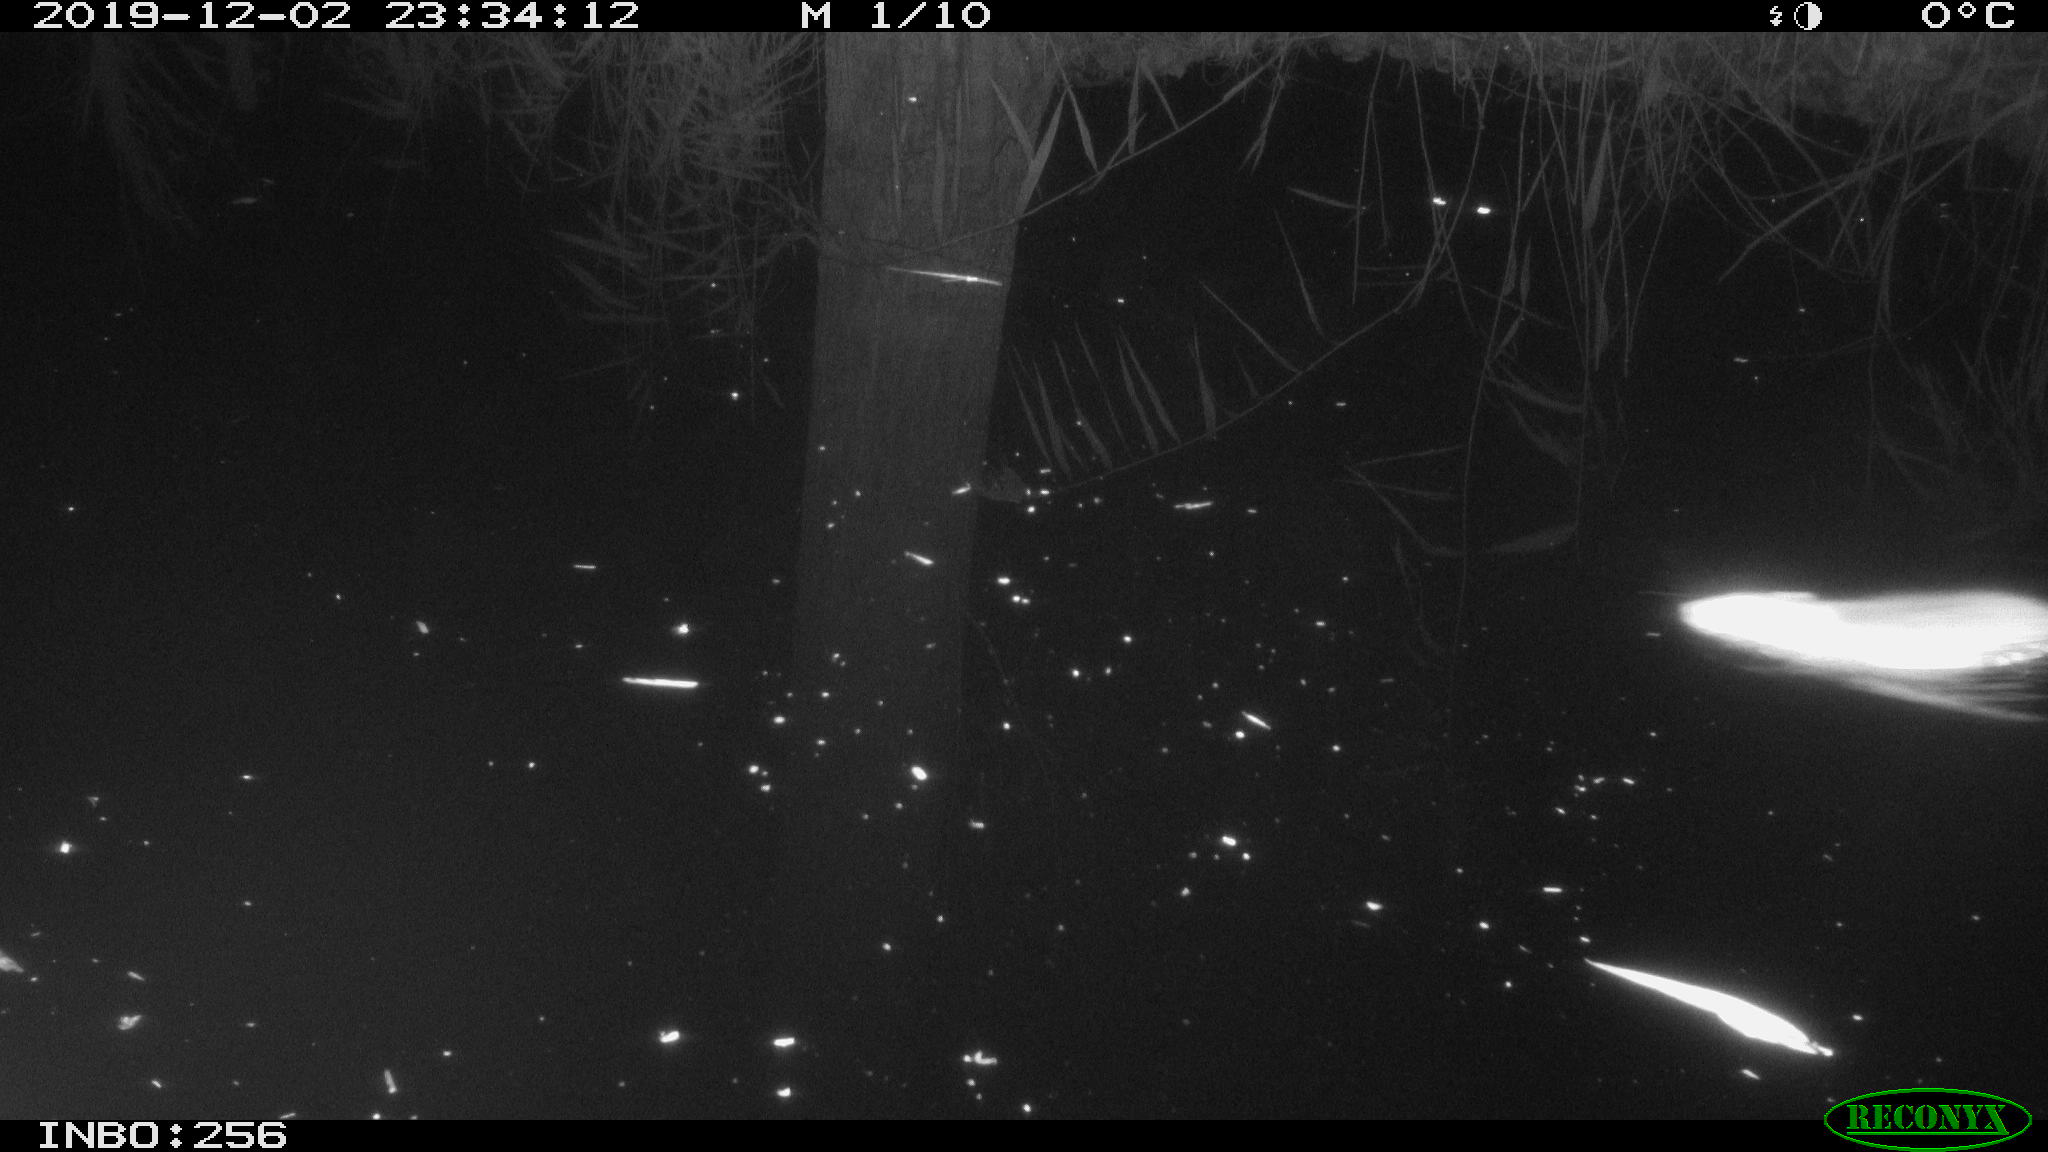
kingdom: Animalia
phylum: Chordata
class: Mammalia
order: Rodentia
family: Muridae
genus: Rattus
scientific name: Rattus norvegicus
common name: Brown rat
